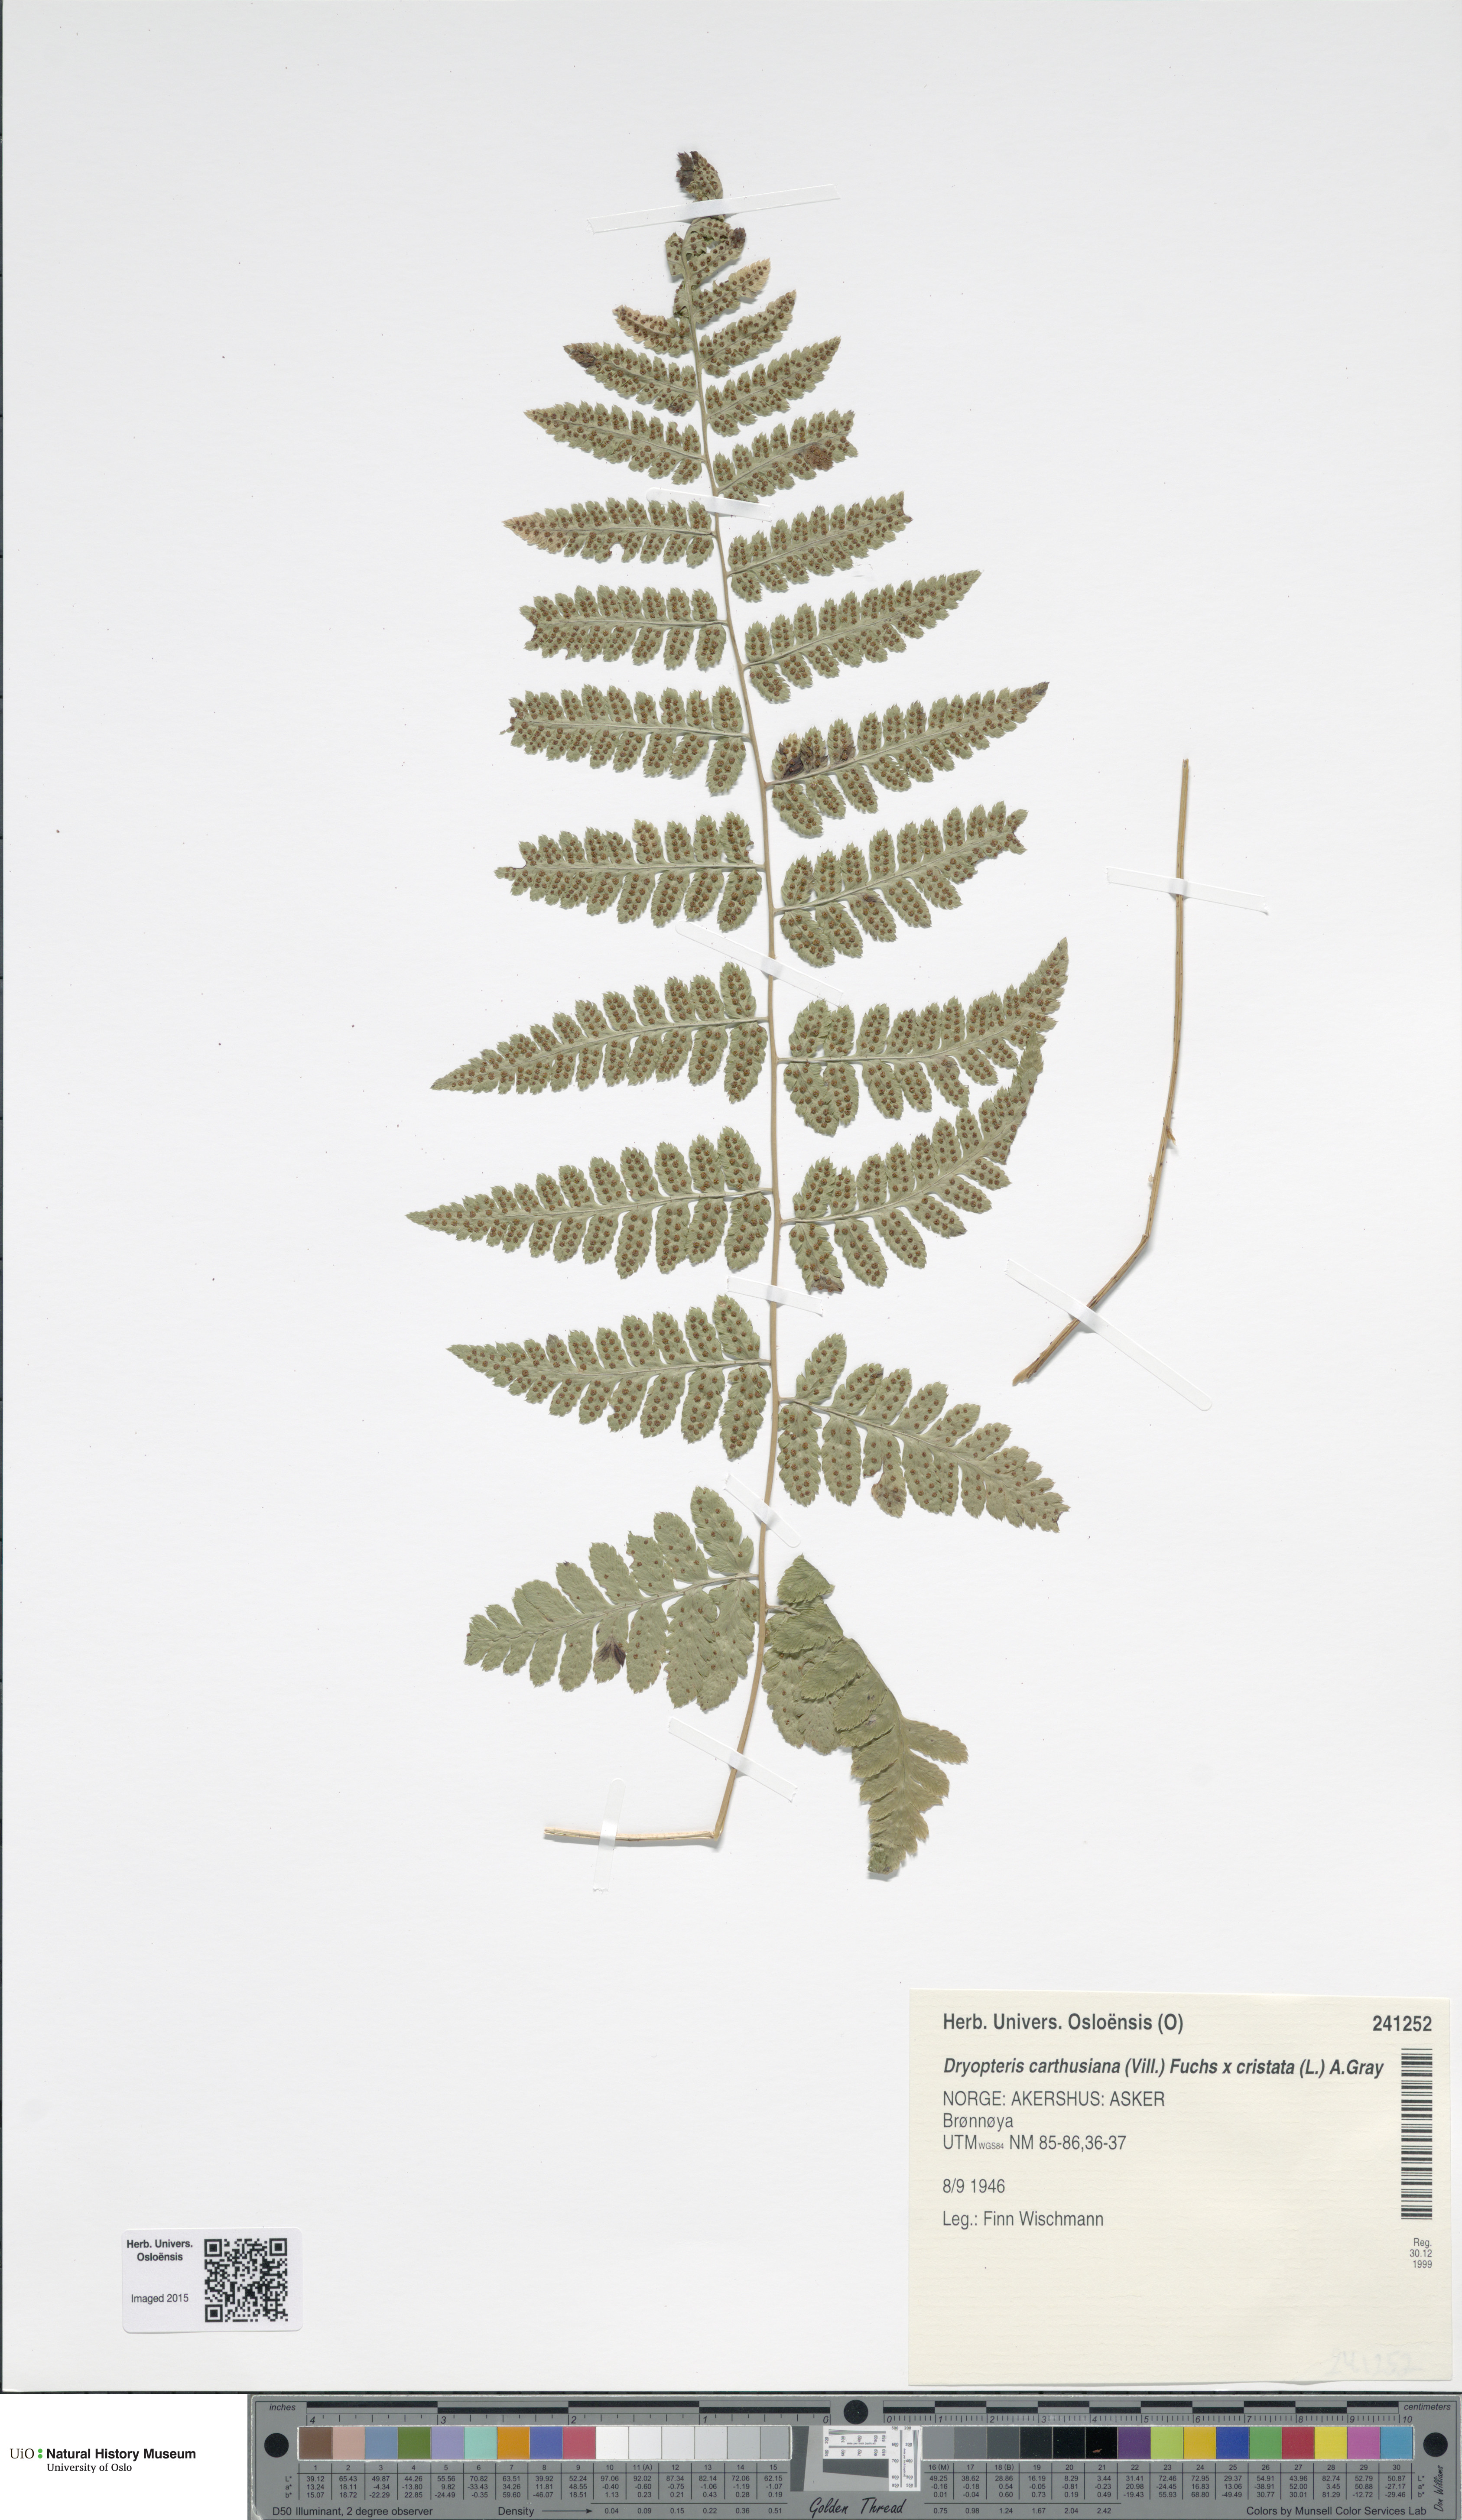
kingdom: Plantae
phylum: Tracheophyta
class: Polypodiopsida
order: Polypodiales
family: Dryopteridaceae
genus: Dryopteris
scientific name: Dryopteris
